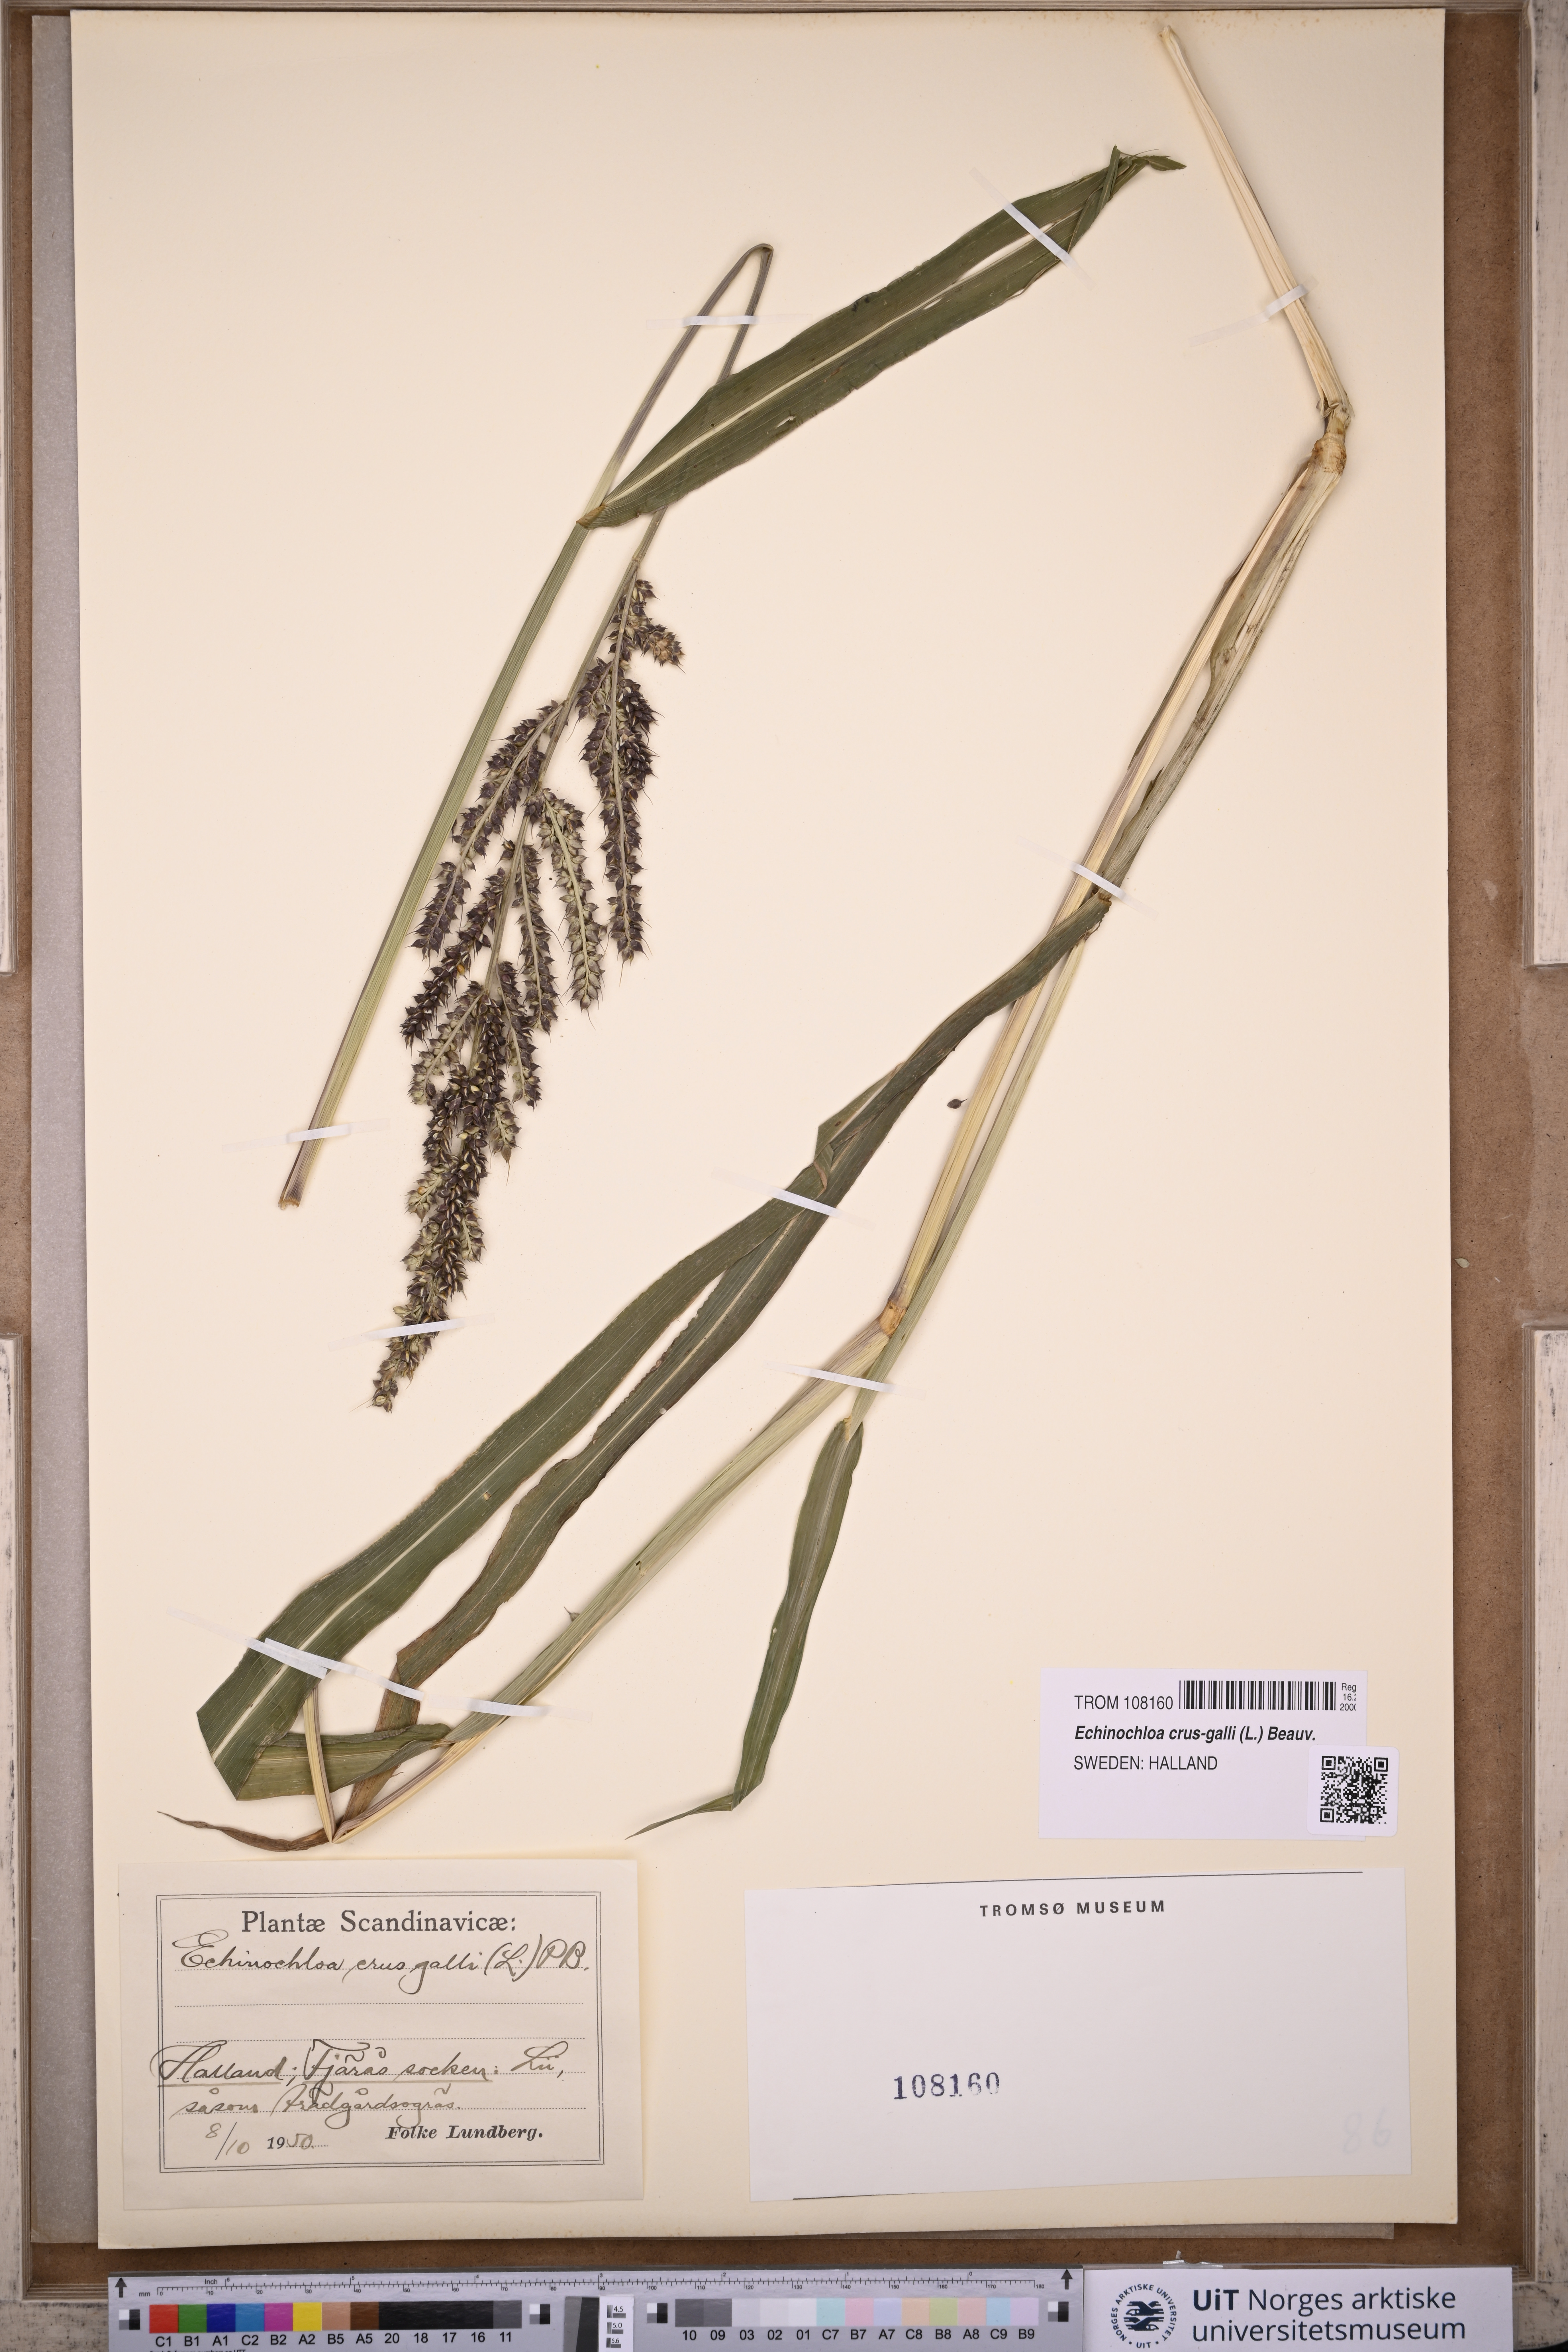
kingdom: Plantae
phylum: Tracheophyta
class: Liliopsida
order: Poales
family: Poaceae
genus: Echinochloa
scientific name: Echinochloa crus-galli
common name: Cockspur
